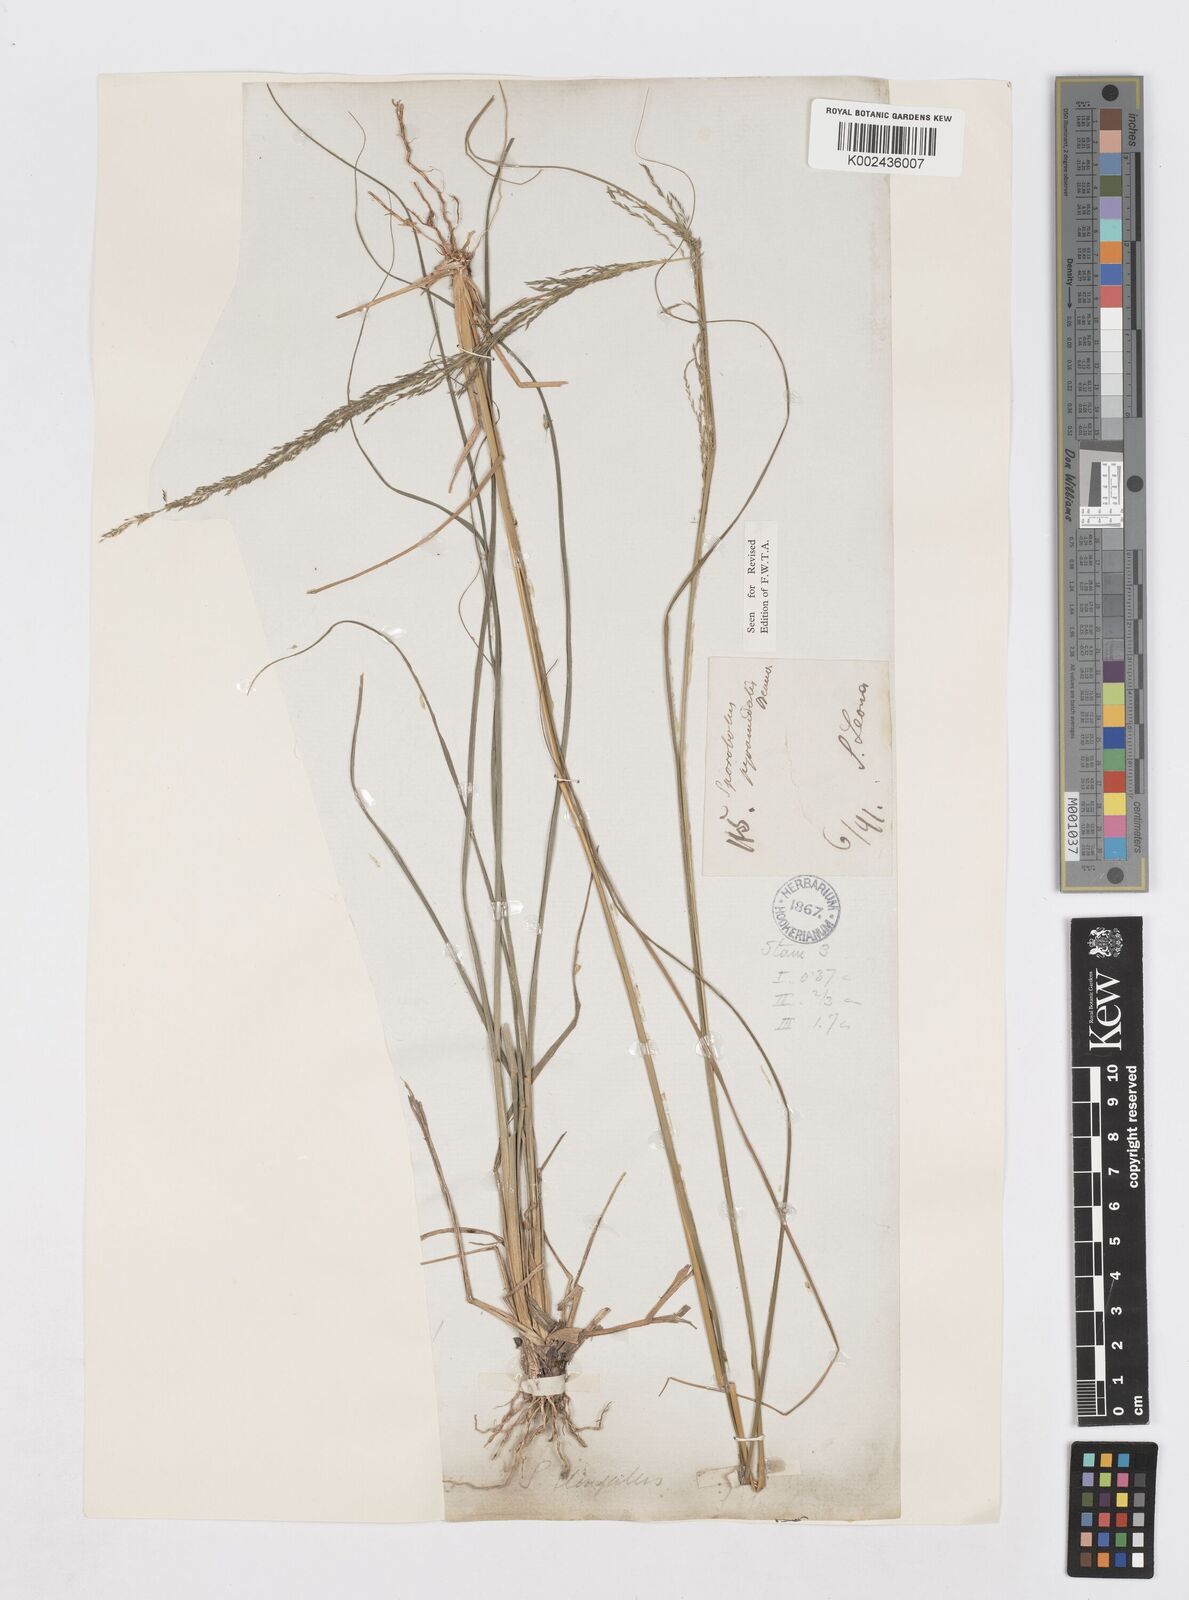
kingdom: Plantae
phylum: Tracheophyta
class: Liliopsida
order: Poales
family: Poaceae
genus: Sporobolus
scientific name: Sporobolus pyramidalis
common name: West indian dropseed
